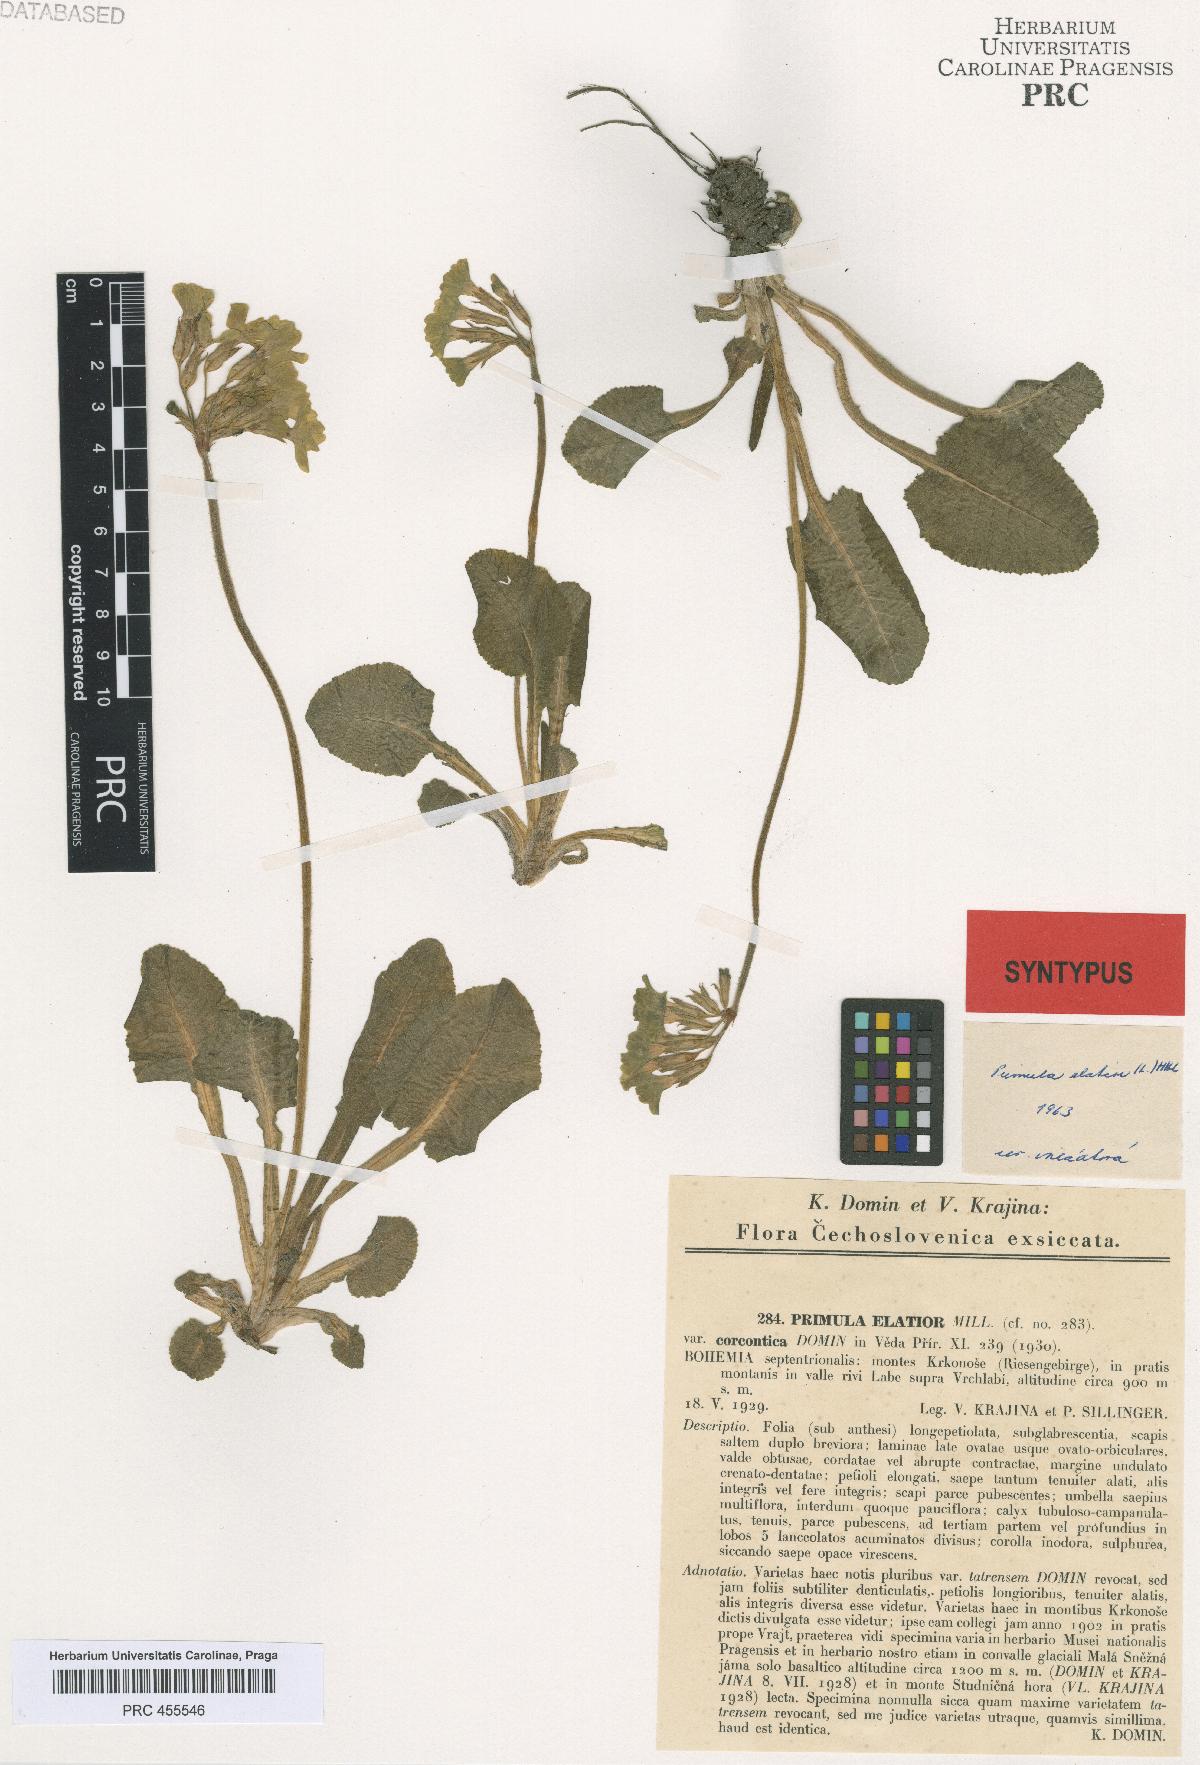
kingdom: Plantae
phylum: Tracheophyta
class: Magnoliopsida
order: Ericales
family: Primulaceae
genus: Primula
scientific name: Primula elatior
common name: Oxlip
